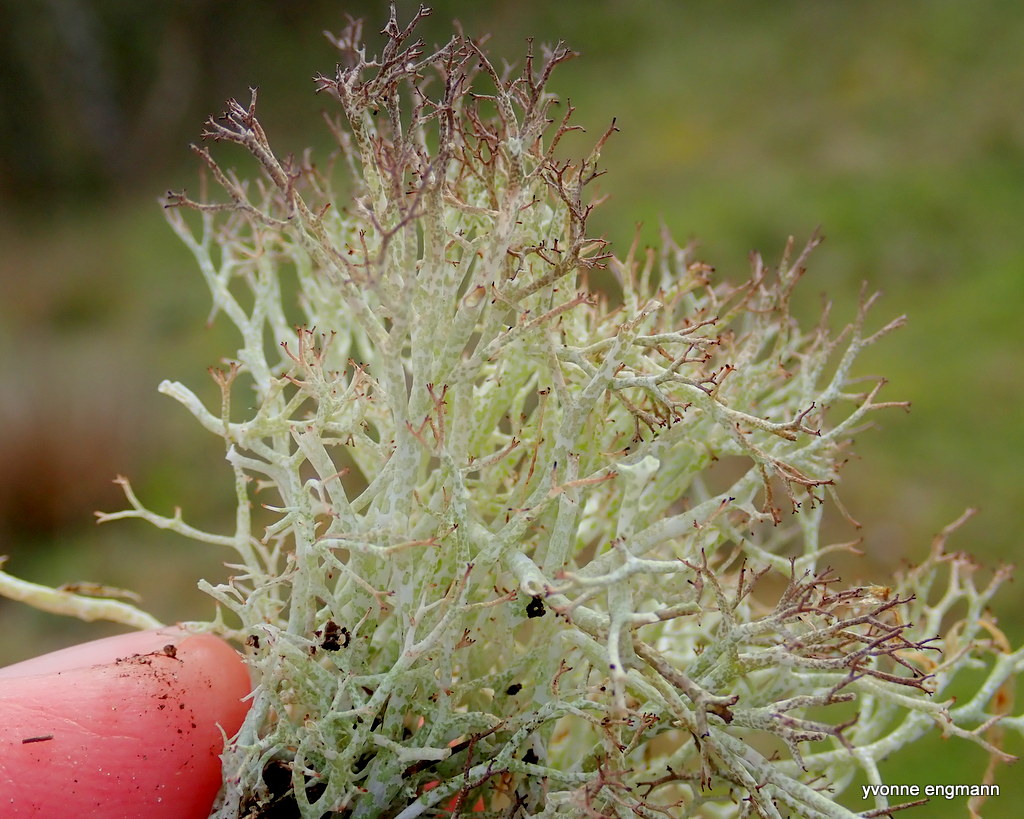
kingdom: Fungi
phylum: Ascomycota
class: Lecanoromycetes
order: Lecanorales
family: Cladoniaceae
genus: Cladonia
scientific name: Cladonia rangiformis
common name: spættet bægerlav
